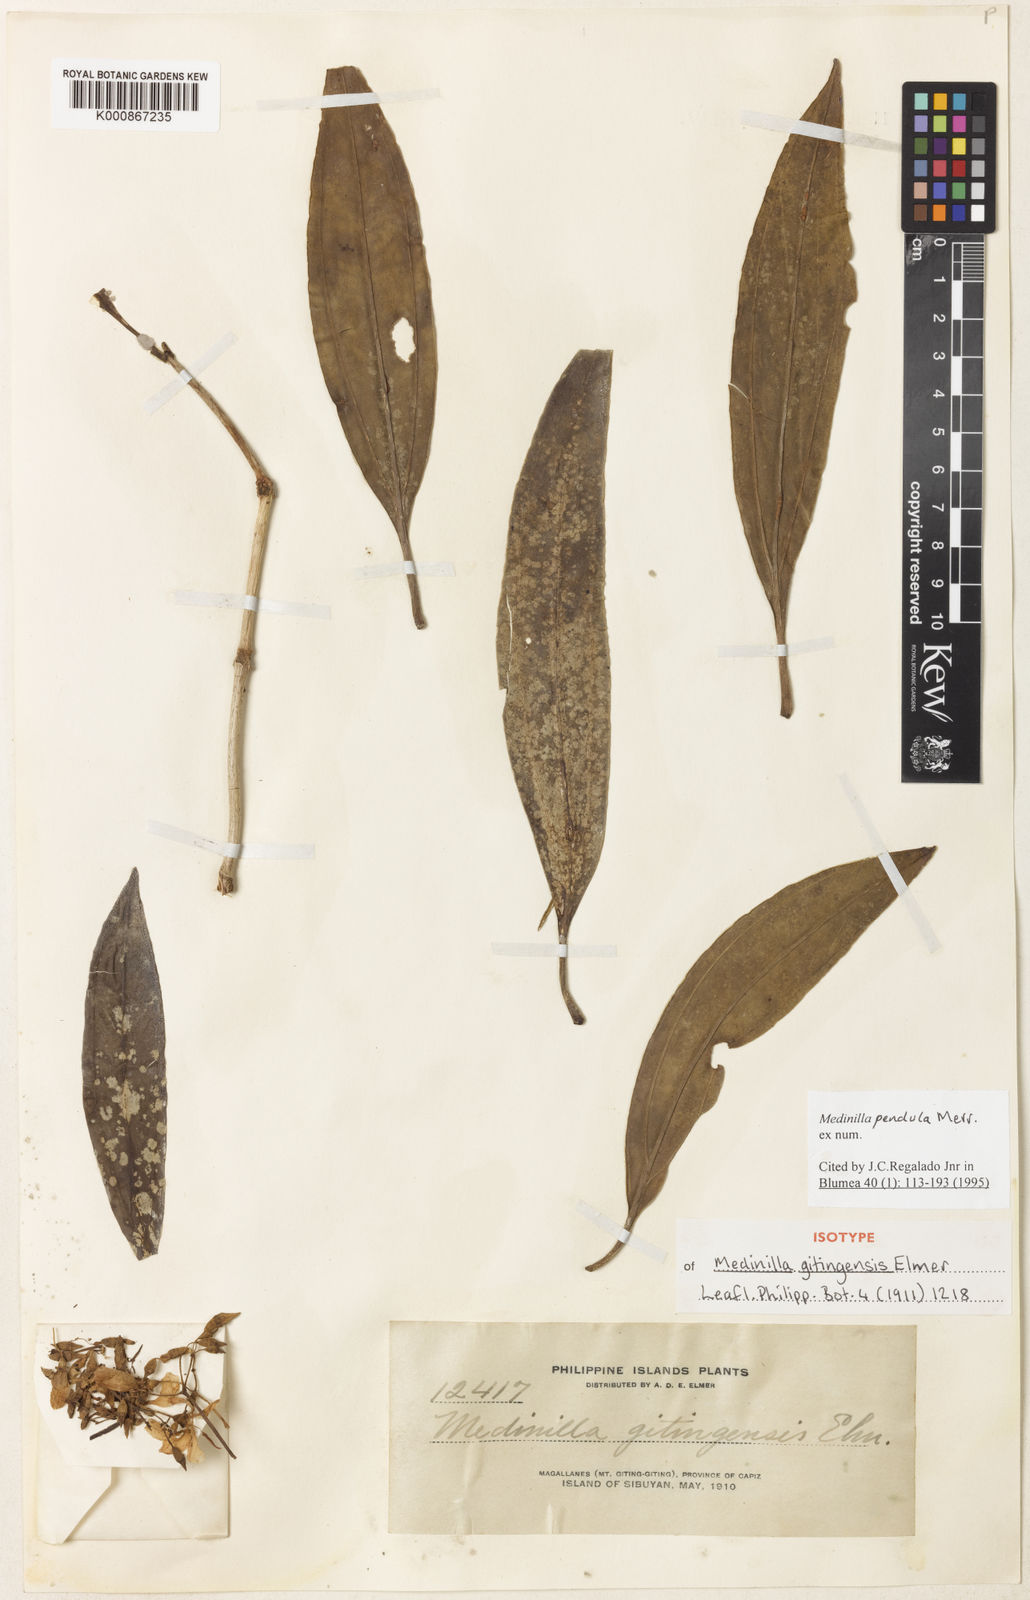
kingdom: Plantae
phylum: Tracheophyta
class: Magnoliopsida
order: Myrtales
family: Melastomataceae
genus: Medinilla
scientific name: Medinilla pendula
